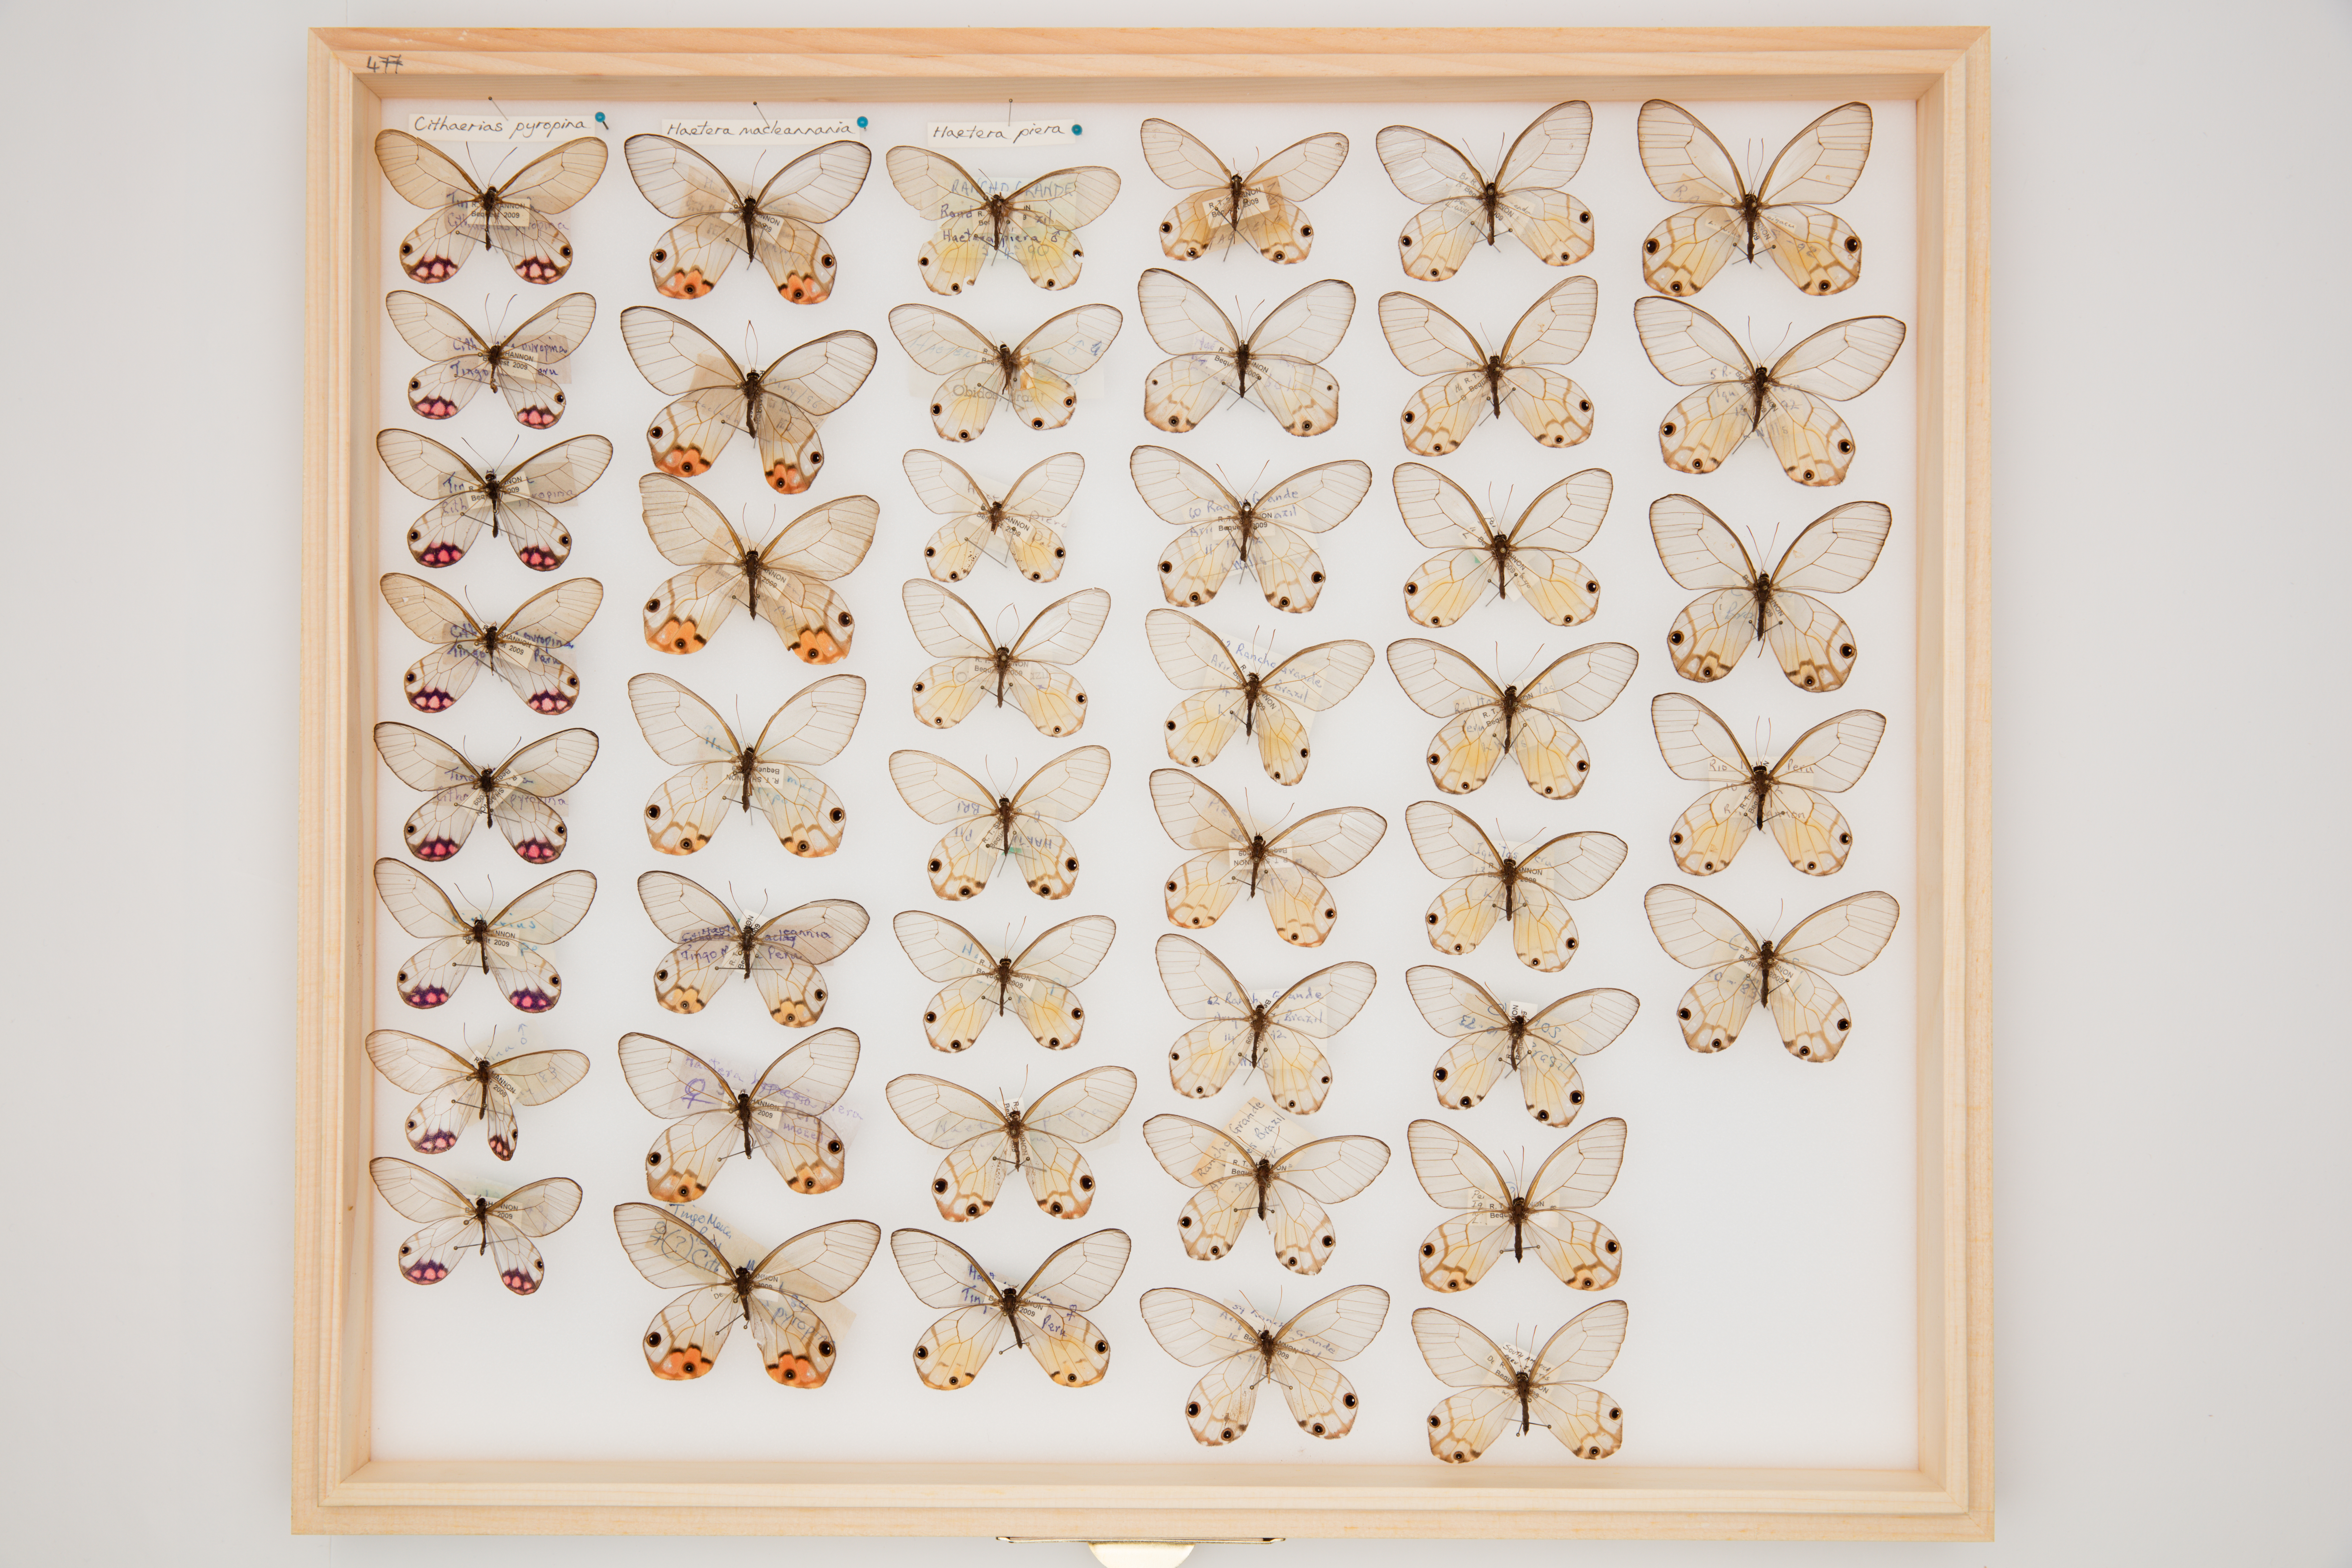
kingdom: Animalia
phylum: Arthropoda
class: Insecta
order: Lepidoptera
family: Nymphalidae
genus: Cithaerias
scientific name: Cithaerias pyropina
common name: Pink clearwing
